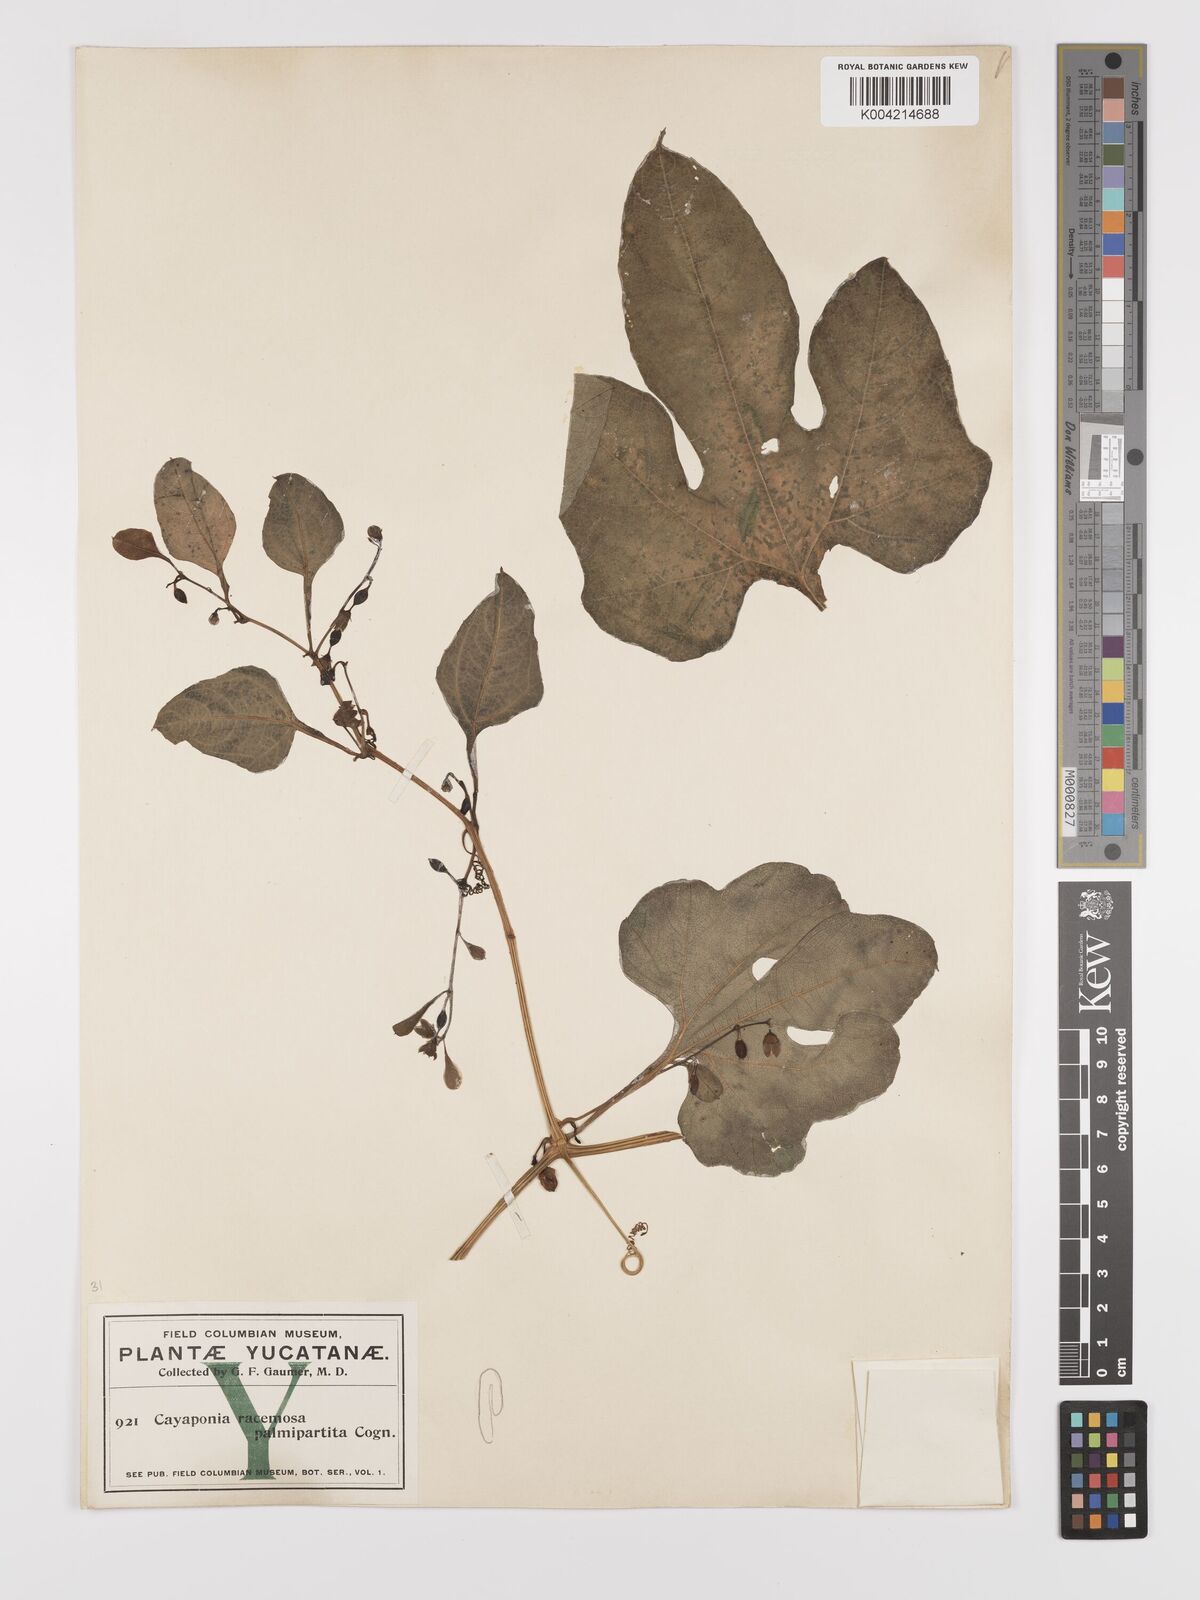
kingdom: Plantae
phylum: Tracheophyta
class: Magnoliopsida
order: Cucurbitales
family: Cucurbitaceae
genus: Cayaponia
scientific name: Cayaponia racemosa
